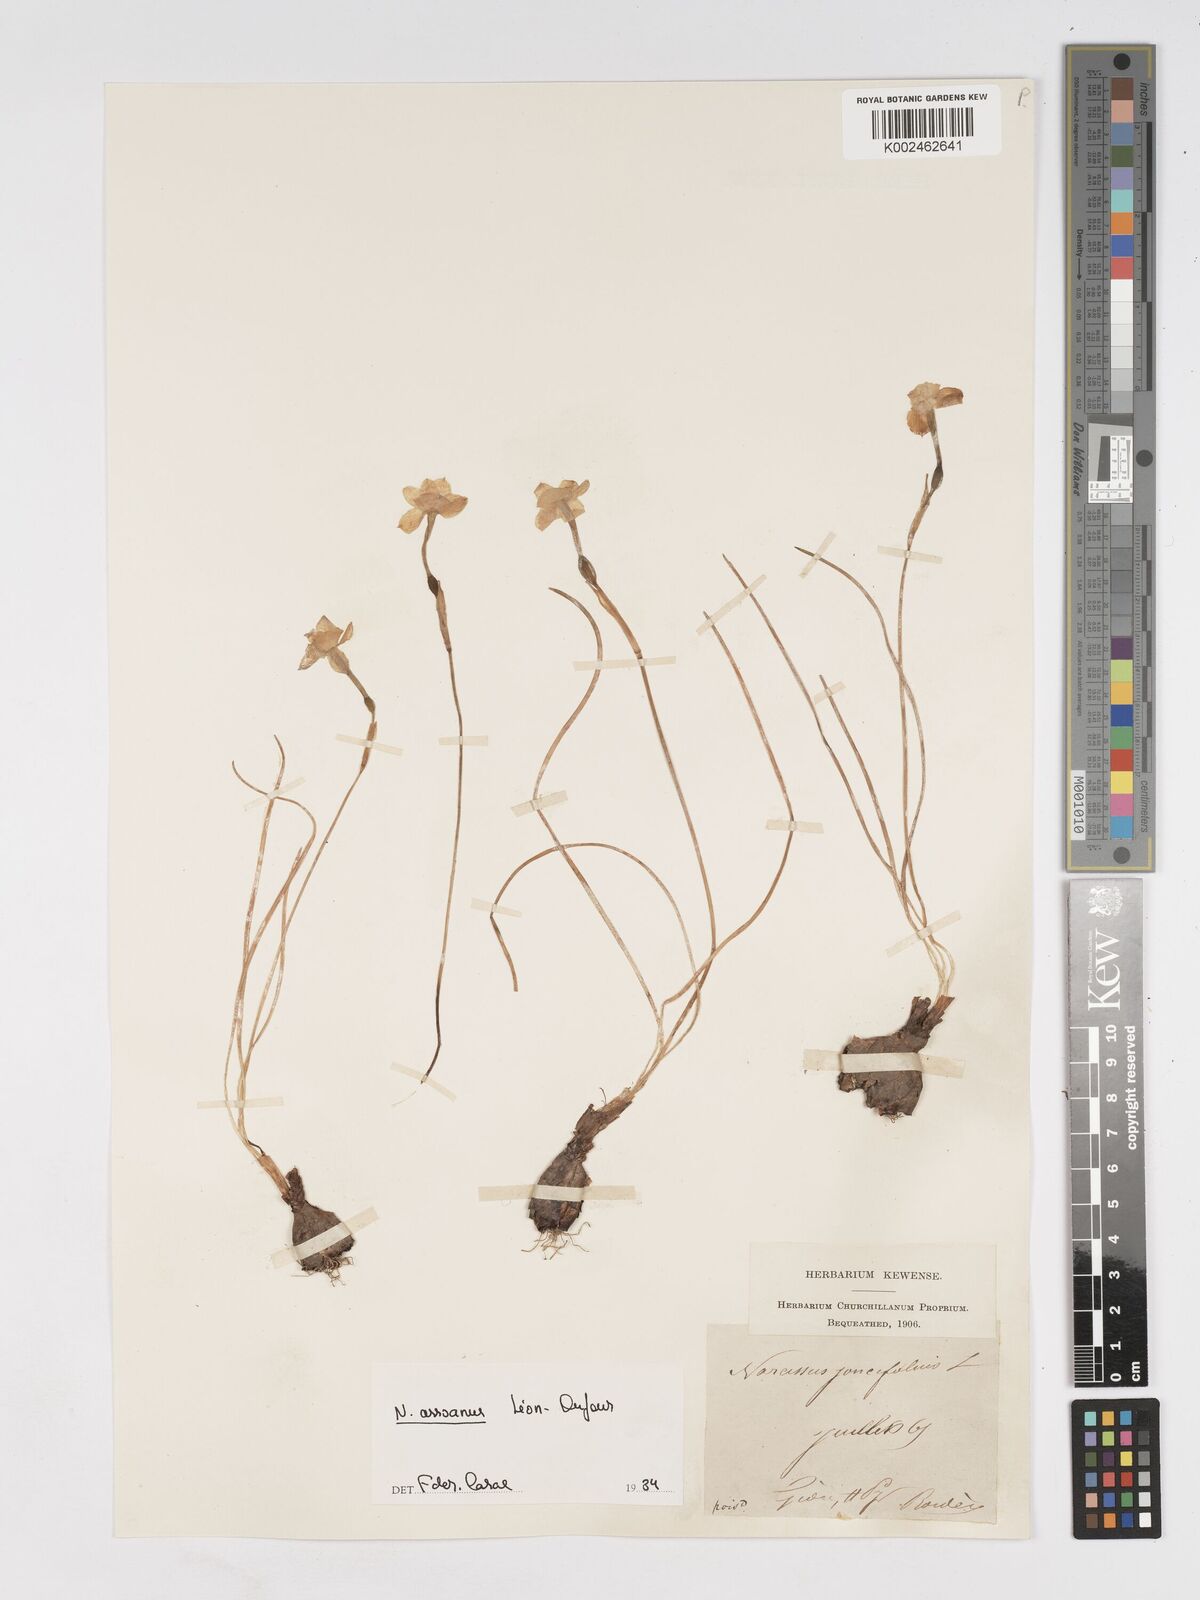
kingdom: Plantae
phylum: Tracheophyta
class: Liliopsida
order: Asparagales
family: Amaryllidaceae
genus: Narcissus
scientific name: Narcissus assoanus
